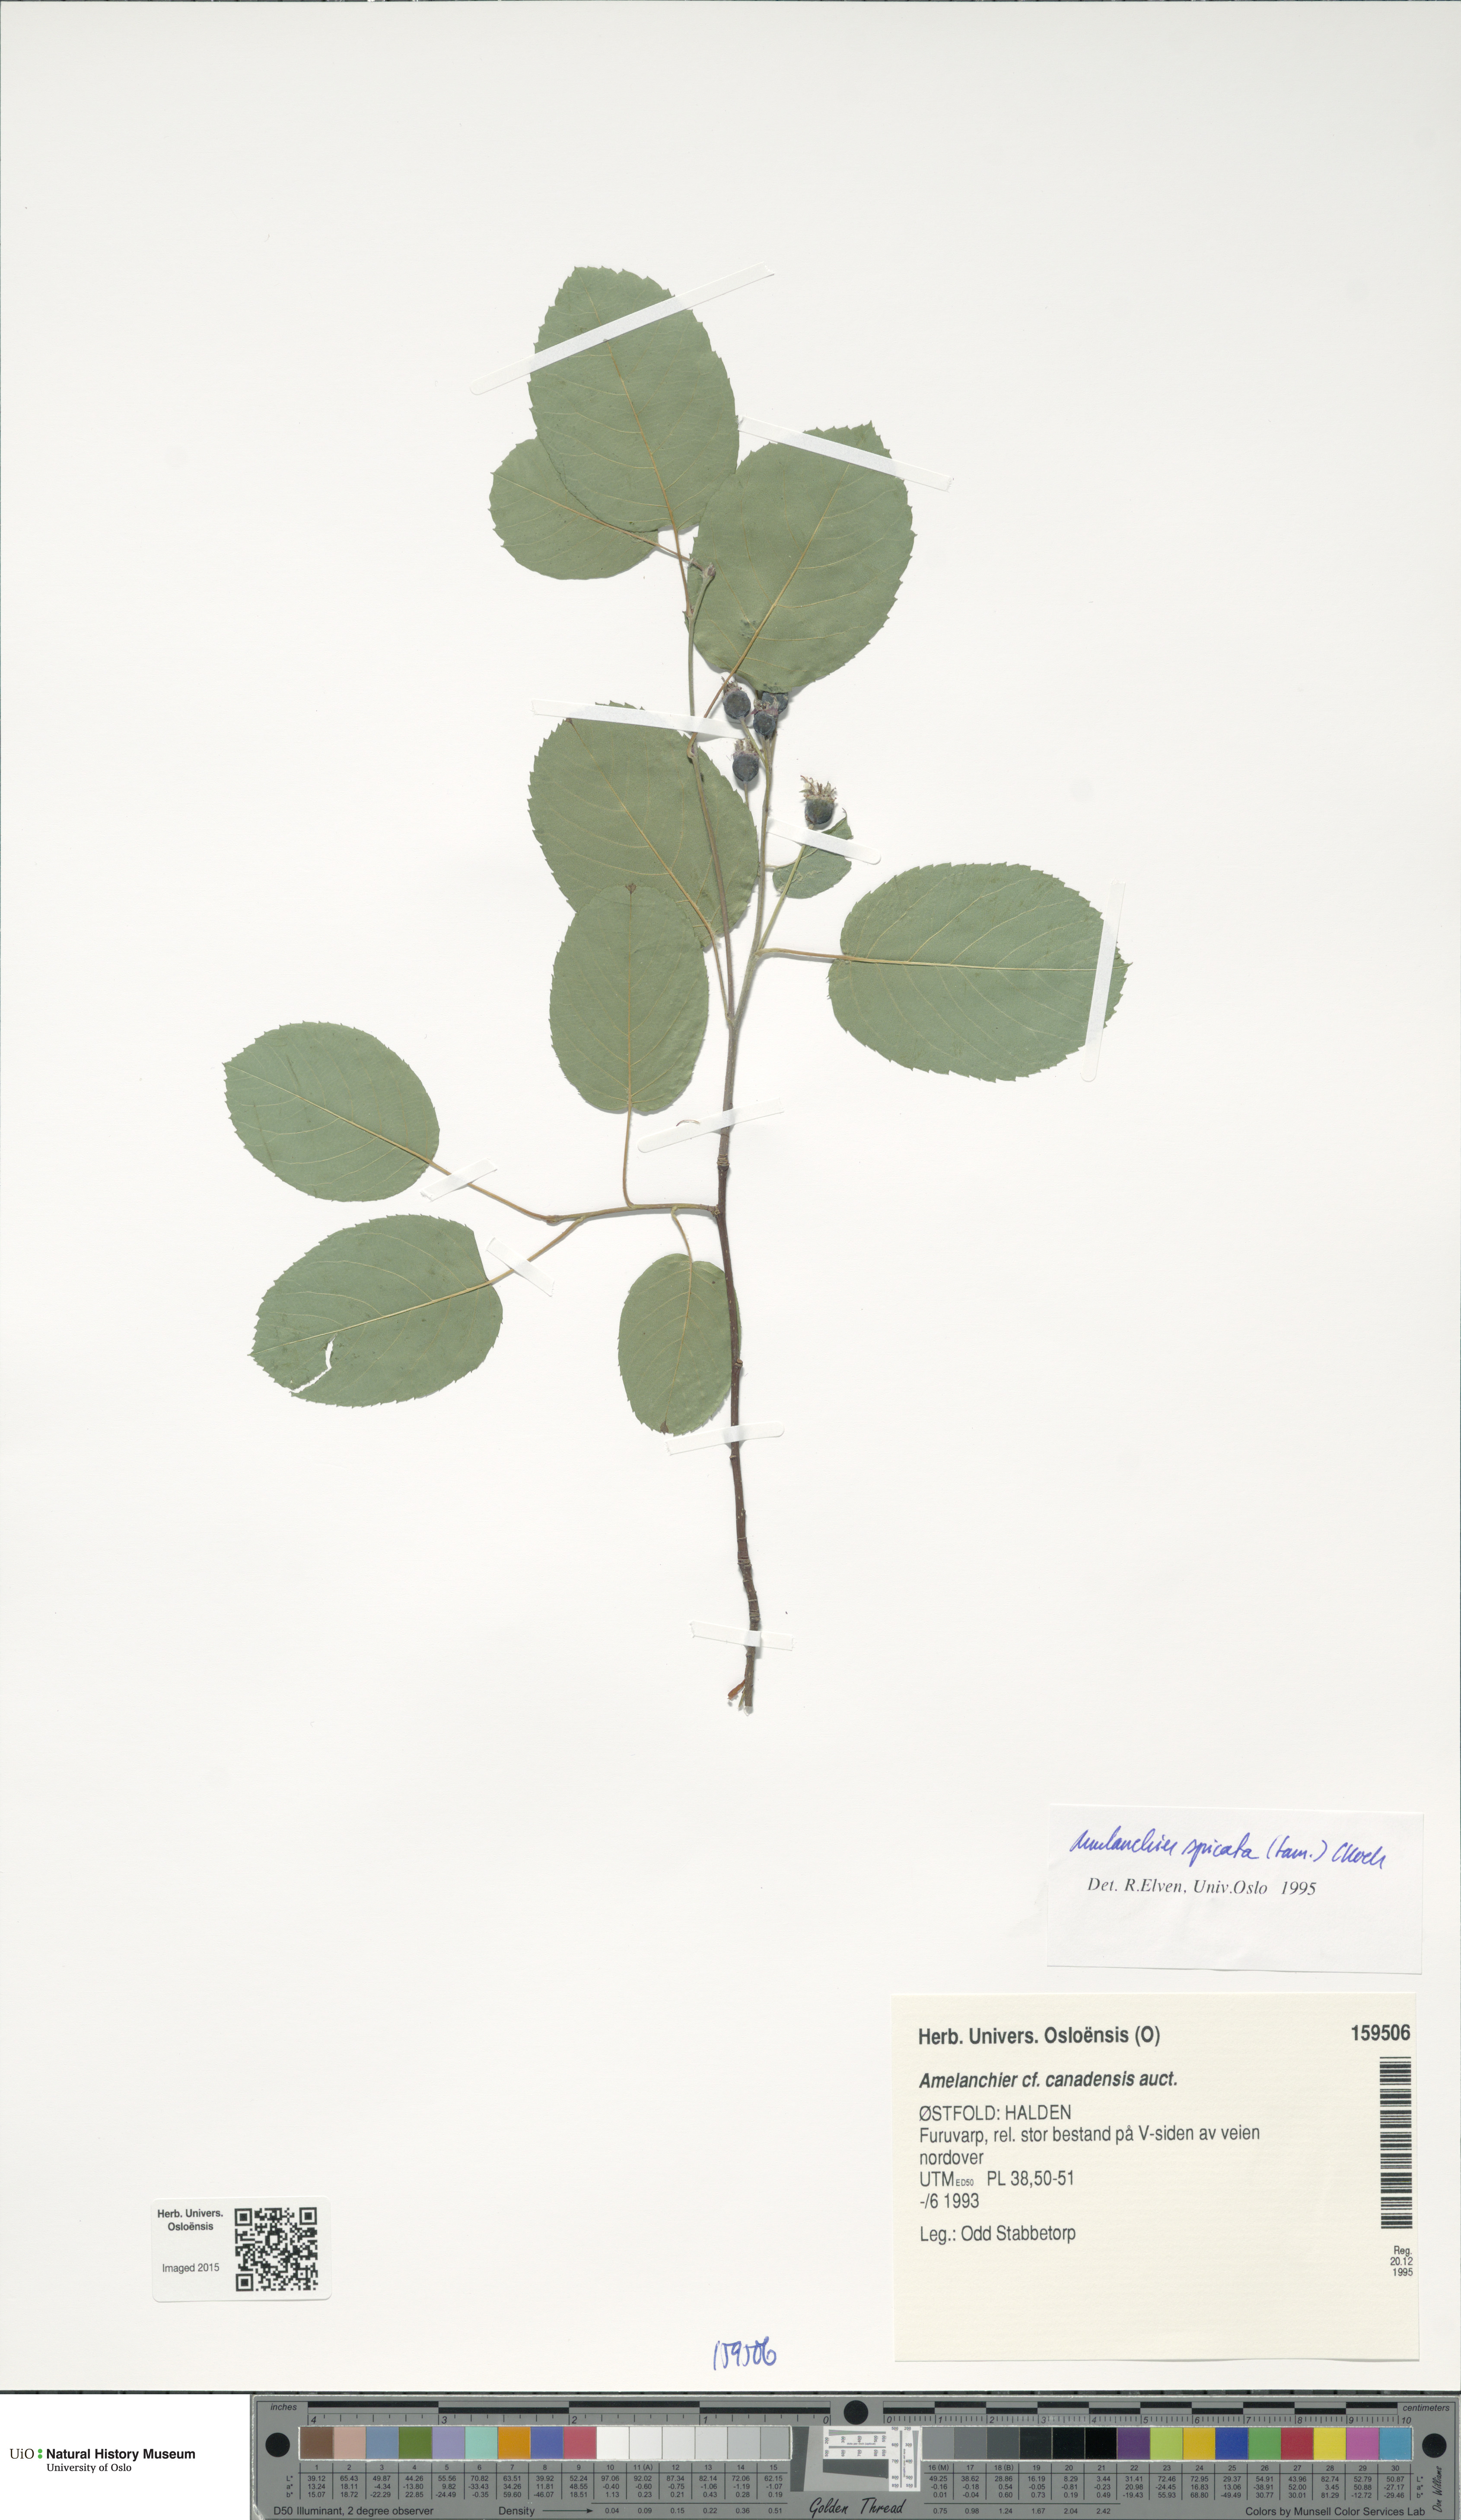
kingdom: Plantae
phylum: Tracheophyta
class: Magnoliopsida
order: Rosales
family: Rosaceae
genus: Amelanchier
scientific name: Amelanchier humilis
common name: Low juneberry
